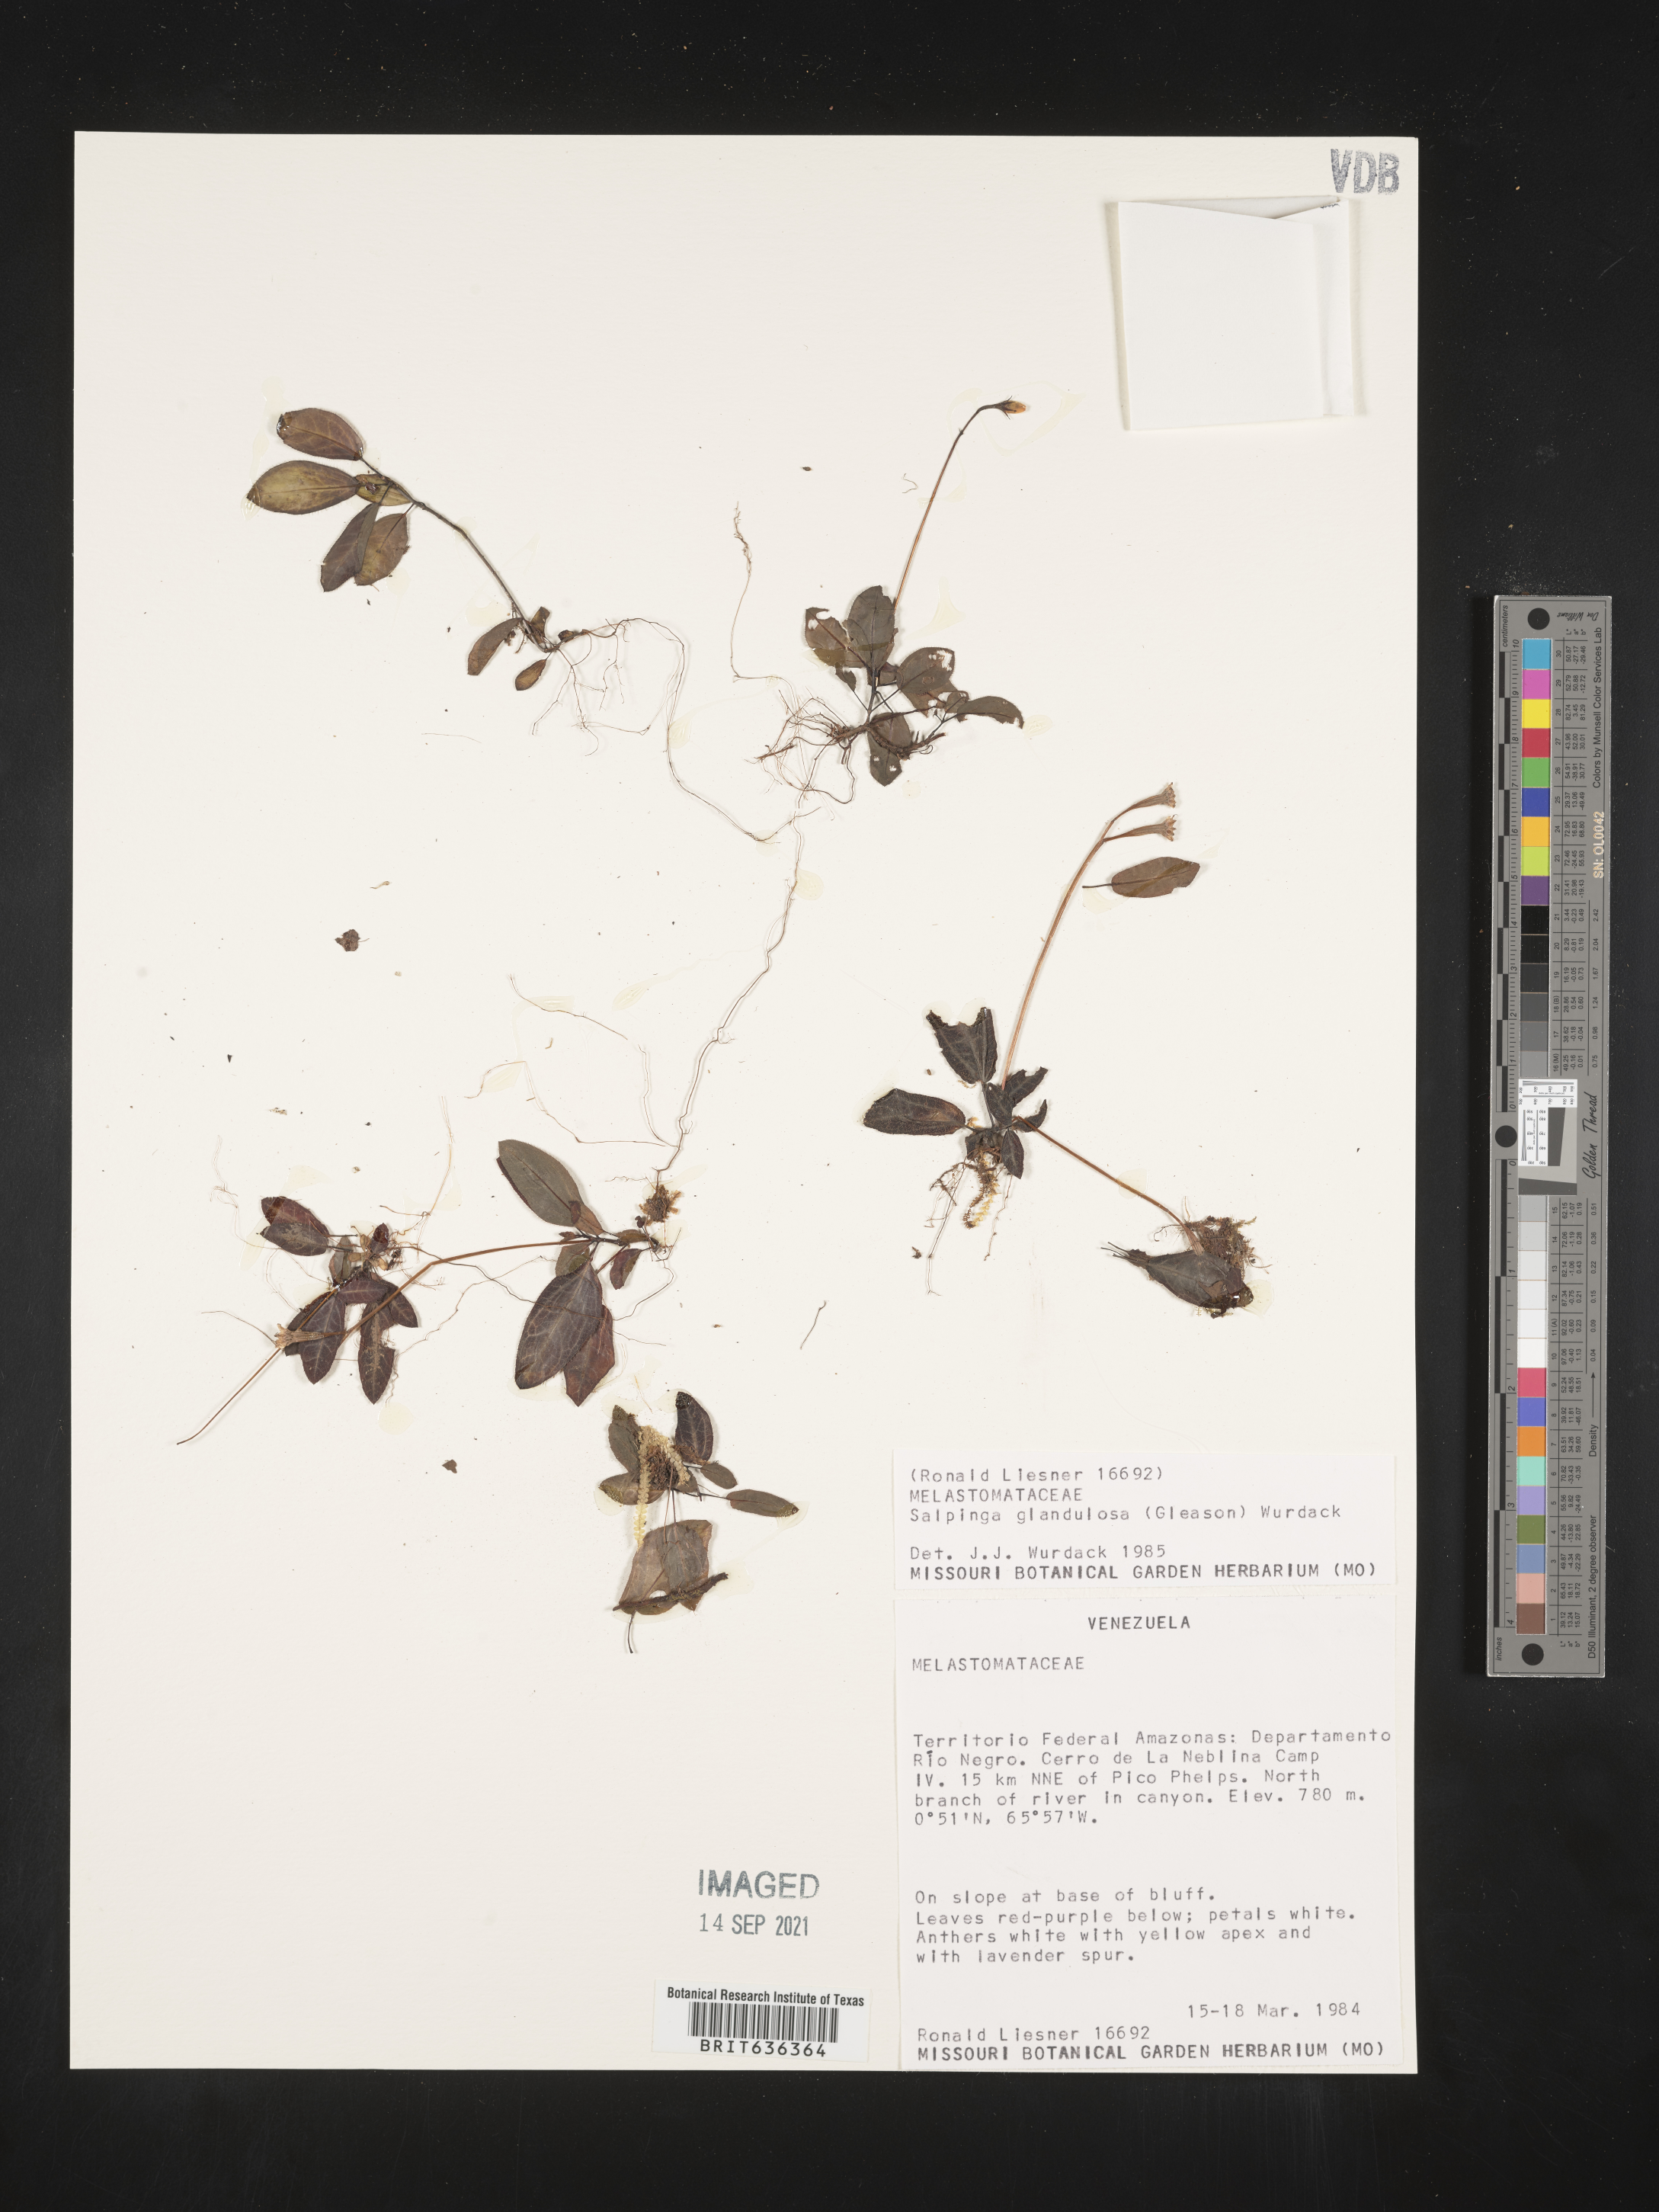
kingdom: Plantae
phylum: Tracheophyta
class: Magnoliopsida
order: Myrtales
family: Melastomataceae
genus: Salpinga
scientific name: Salpinga
